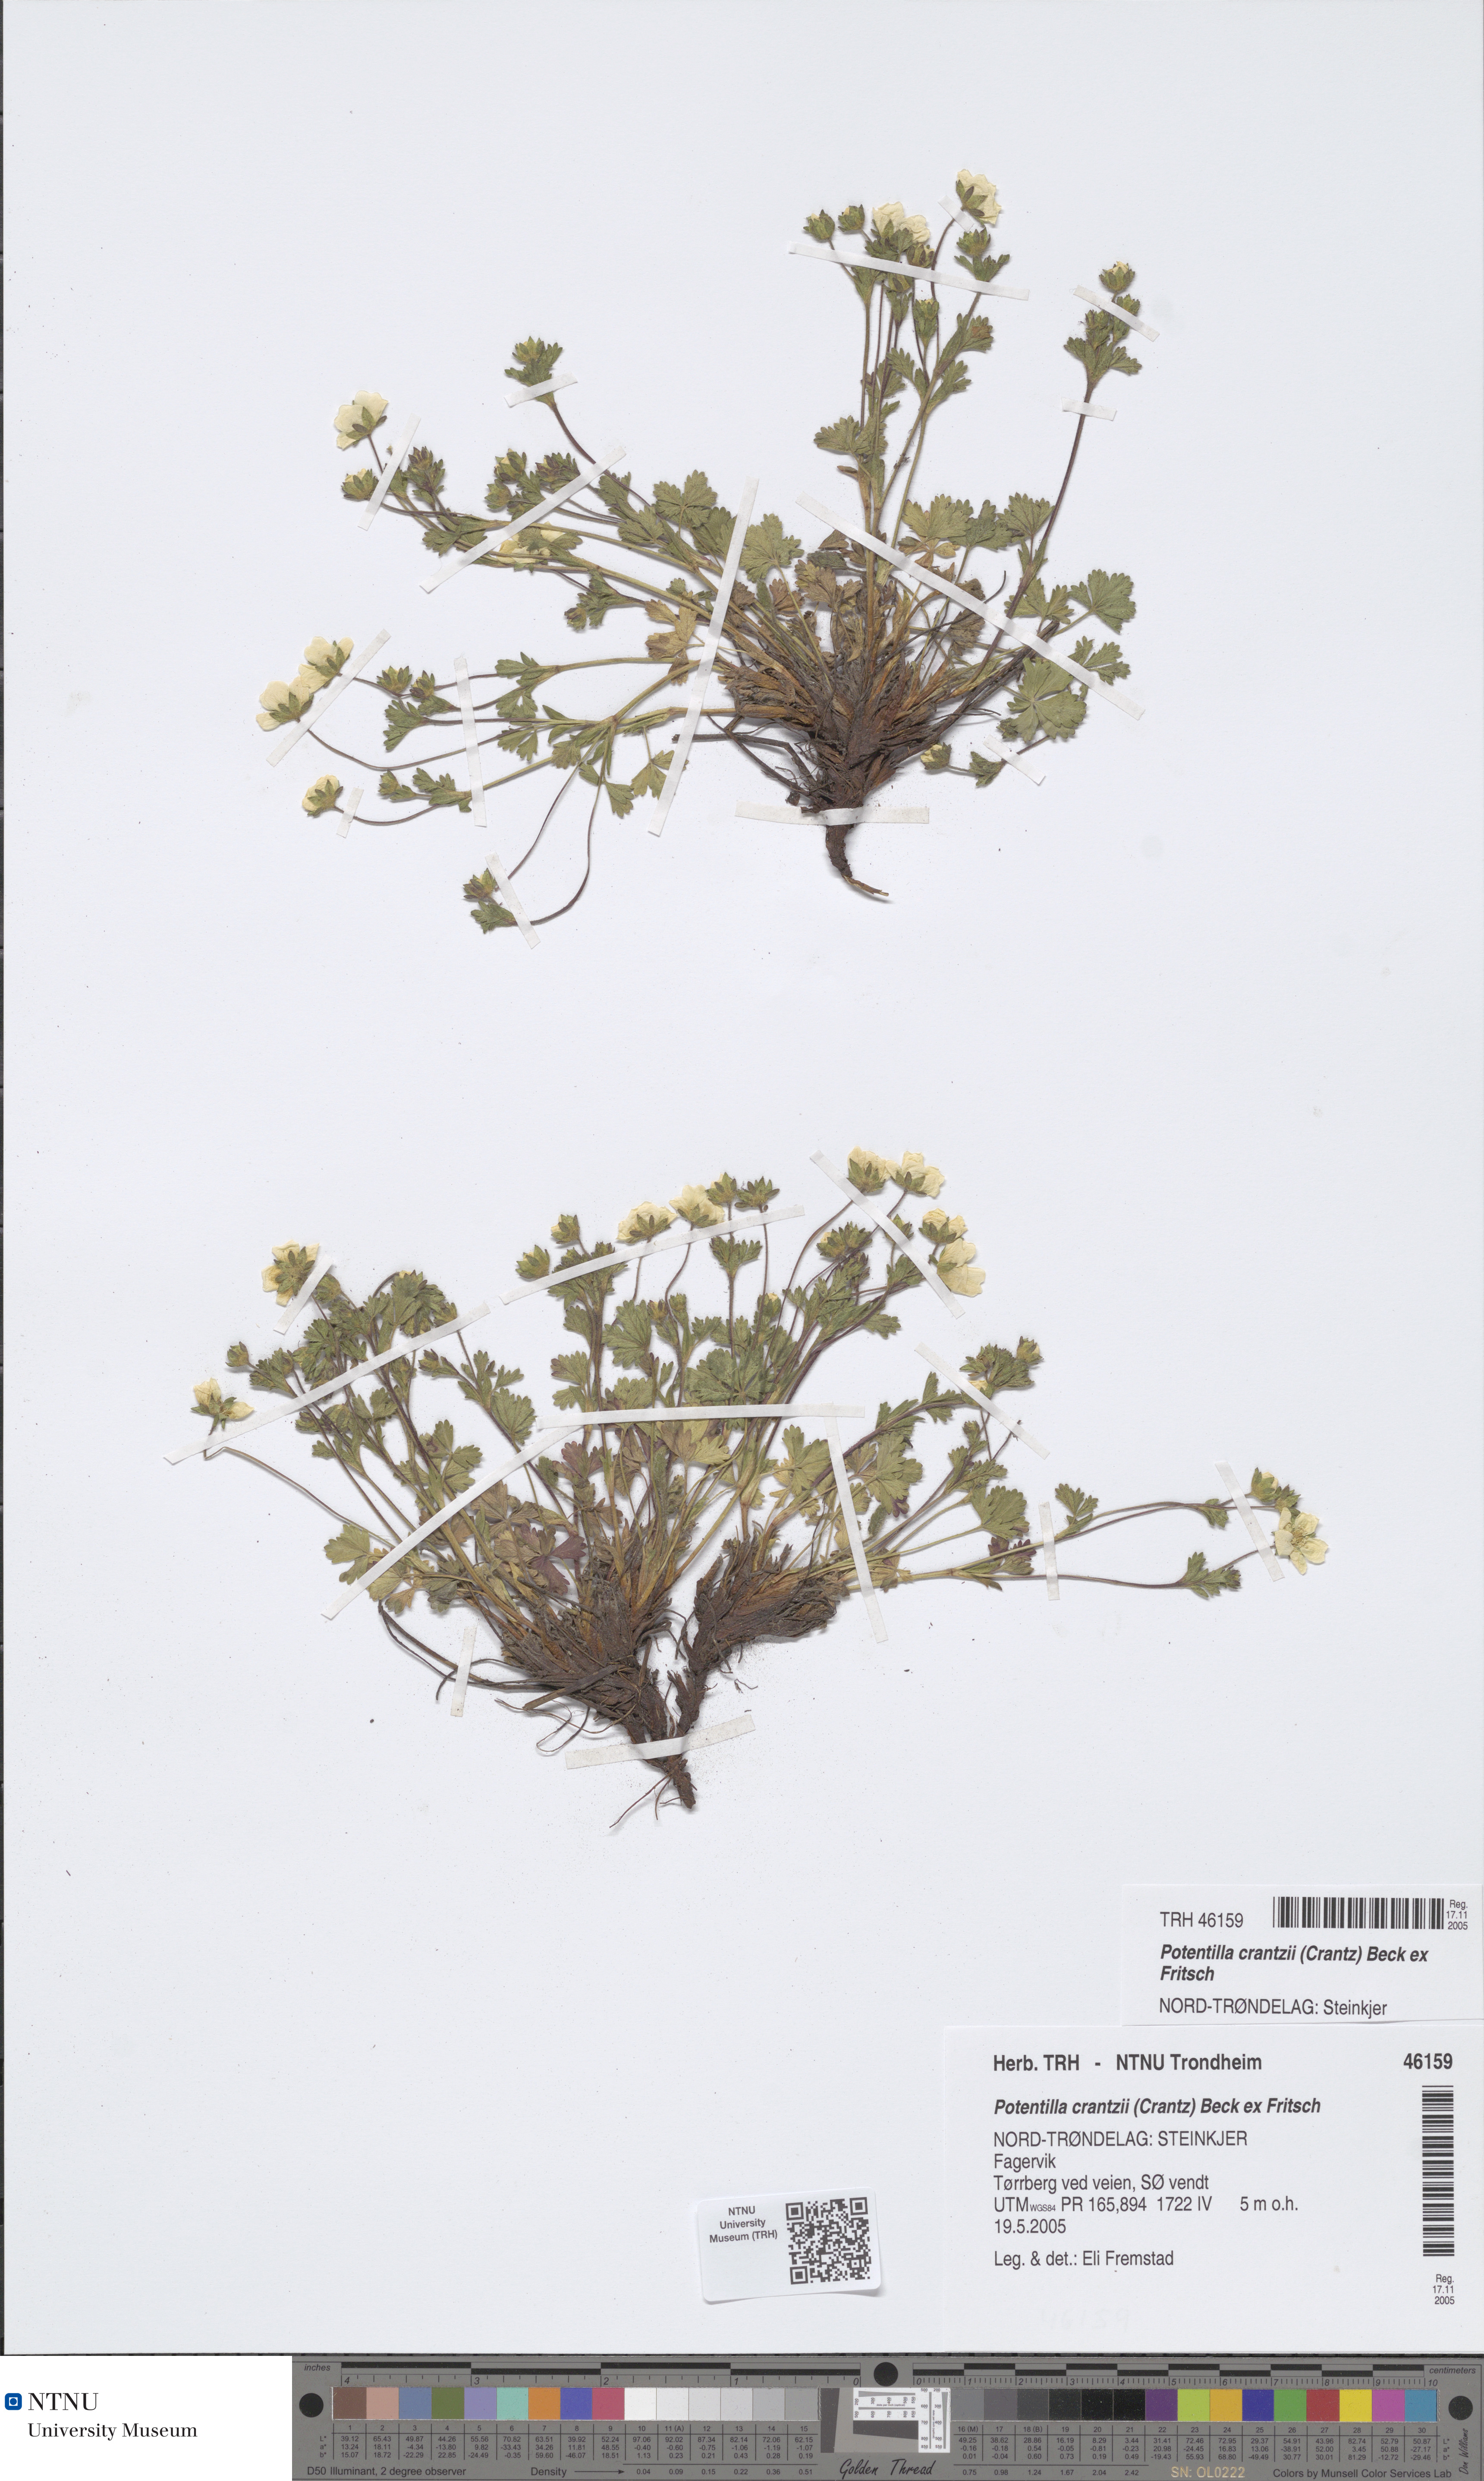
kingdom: Plantae
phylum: Tracheophyta
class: Magnoliopsida
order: Rosales
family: Rosaceae
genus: Potentilla
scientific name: Potentilla crantzii
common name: Alpine cinquefoil
